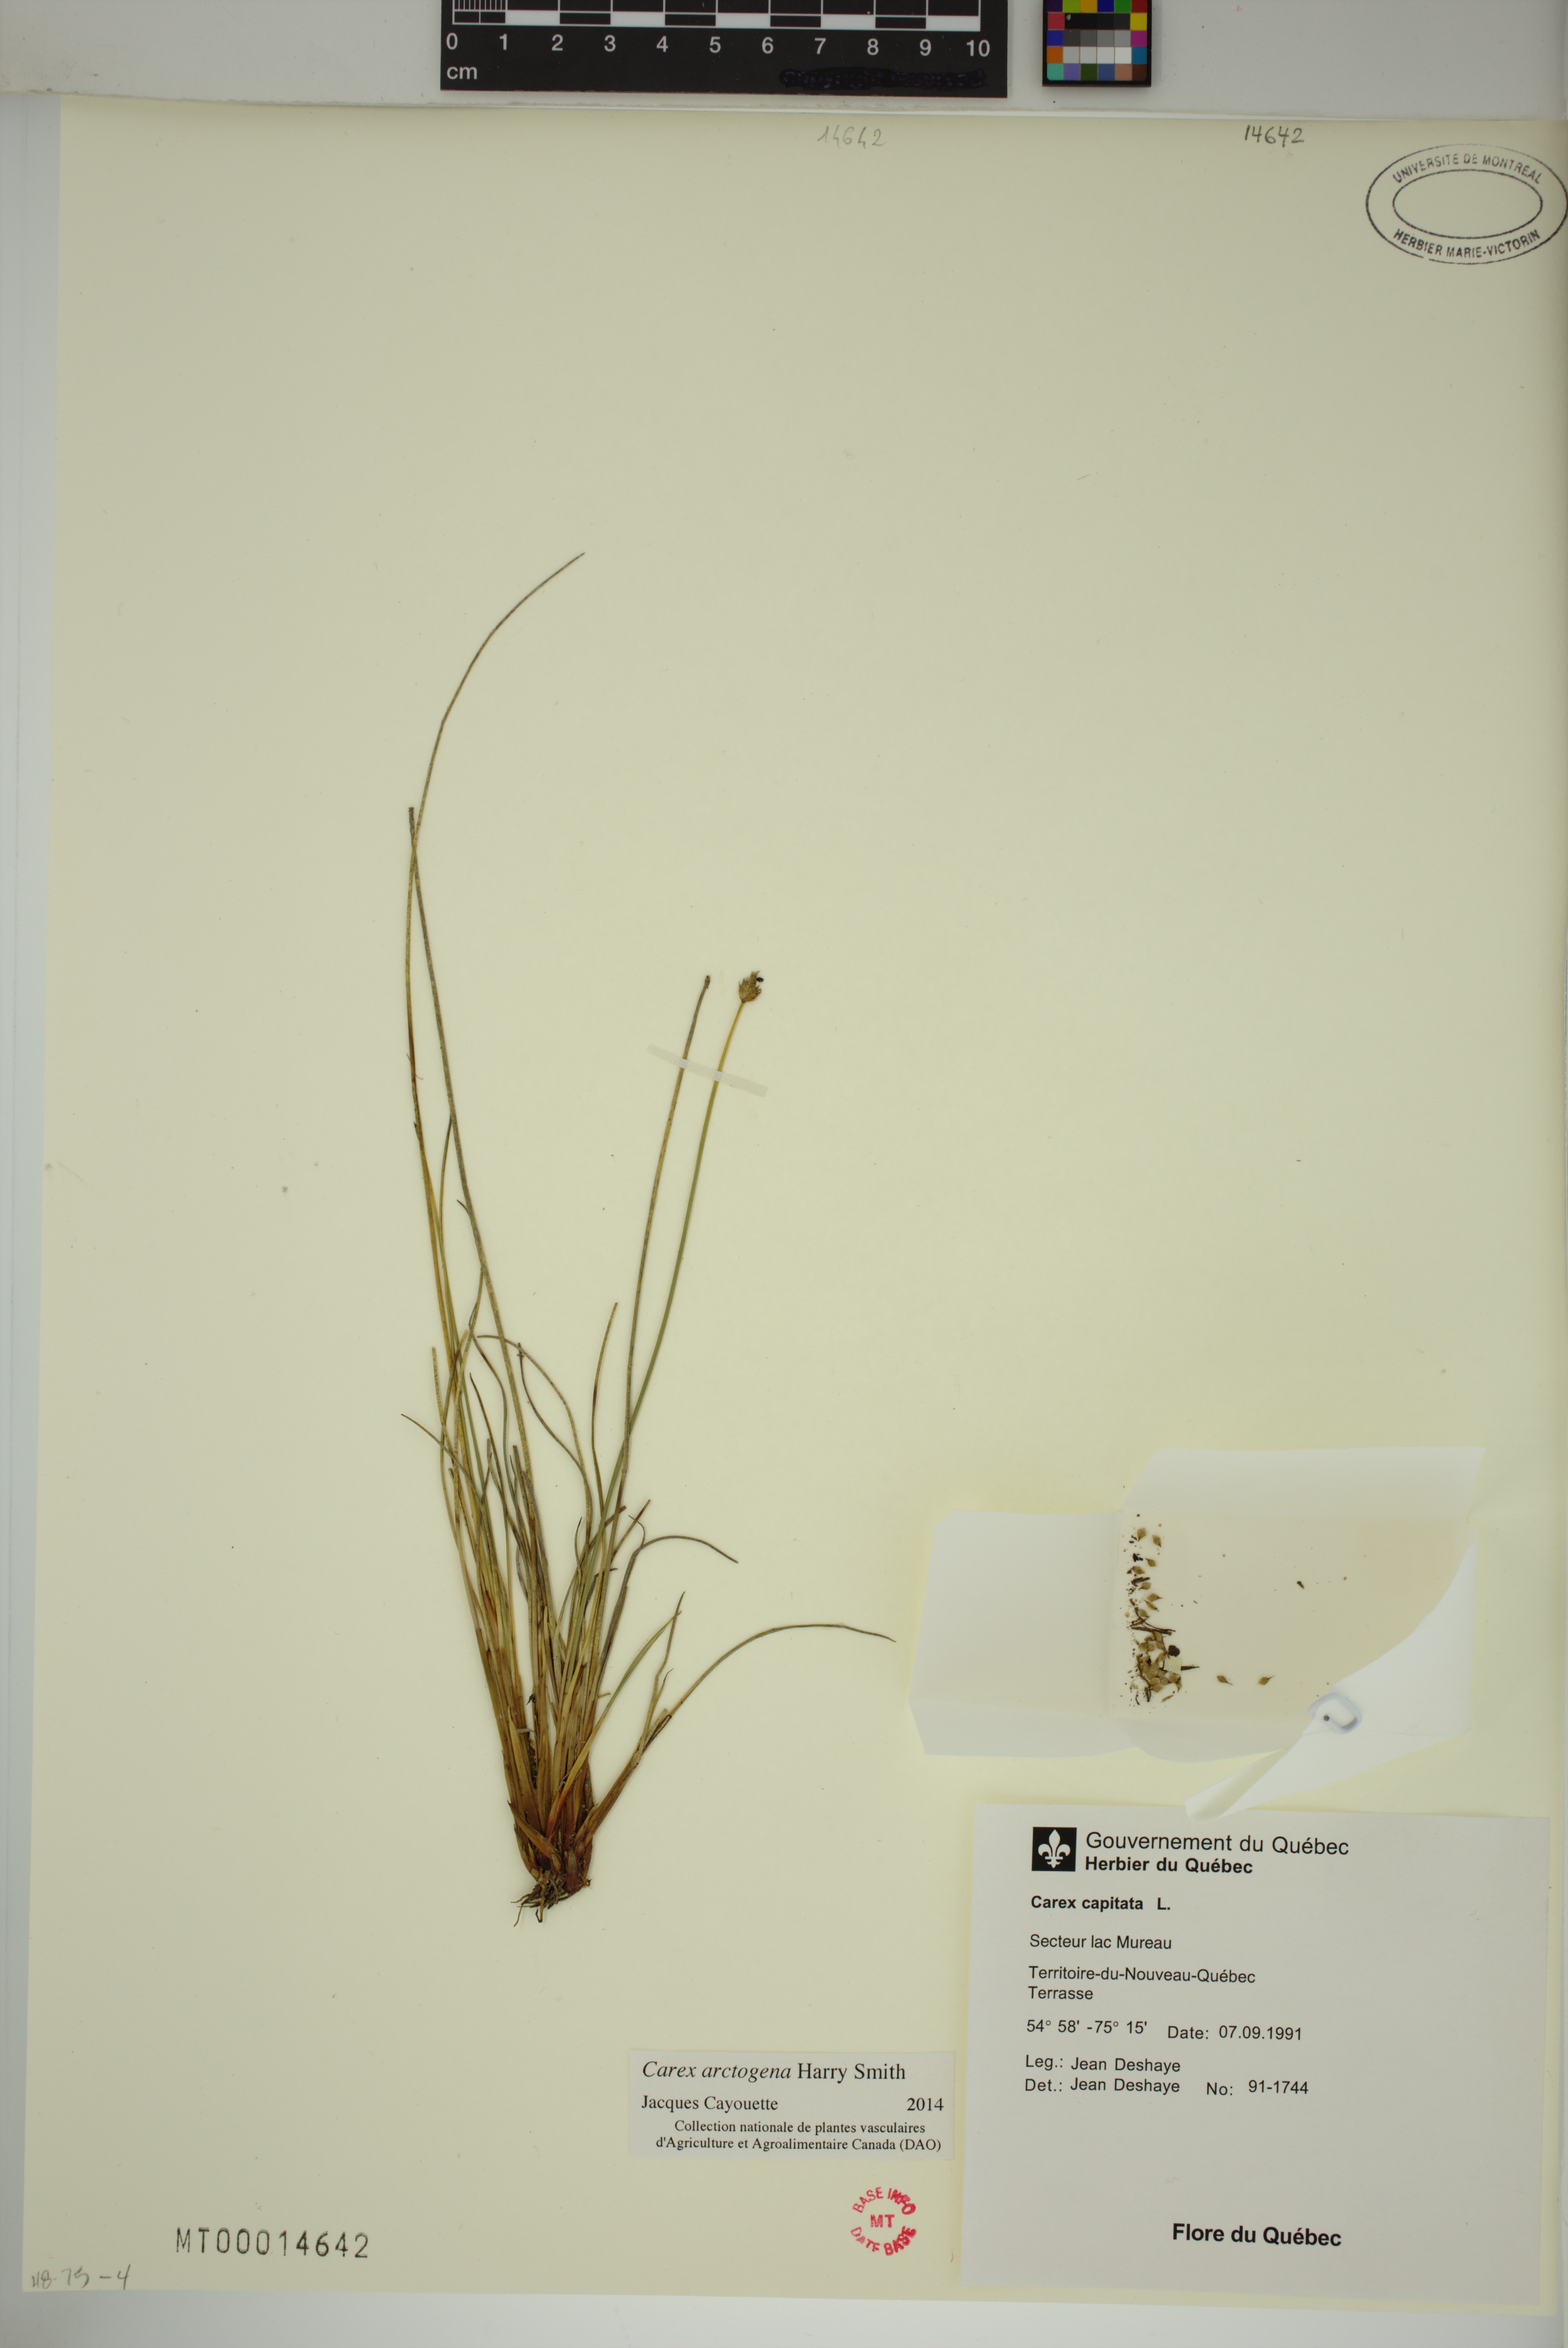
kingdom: Plantae
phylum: Tracheophyta
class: Liliopsida
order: Poales
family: Cyperaceae
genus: Carex
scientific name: Carex arctogena
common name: Black sedge
